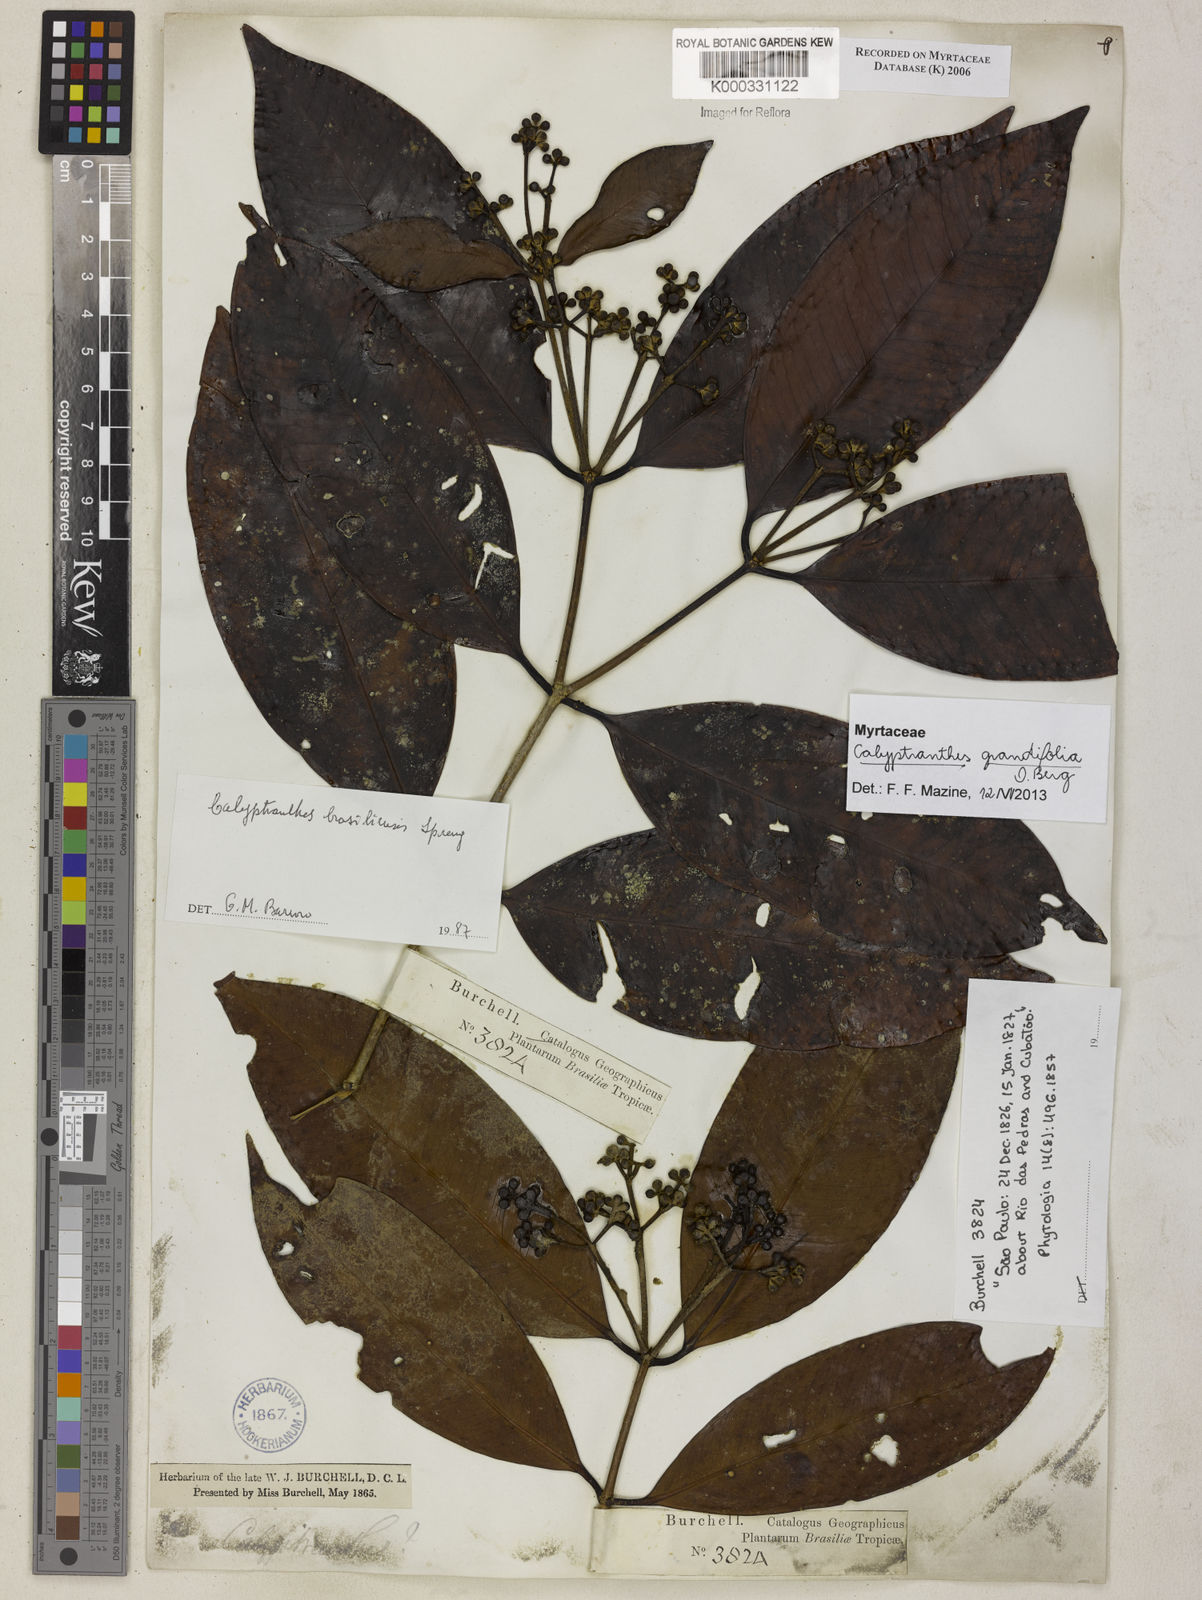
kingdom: Plantae
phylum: Tracheophyta
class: Magnoliopsida
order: Myrtales
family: Myrtaceae
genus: Myrcia
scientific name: Myrcia neobrasiliensis
